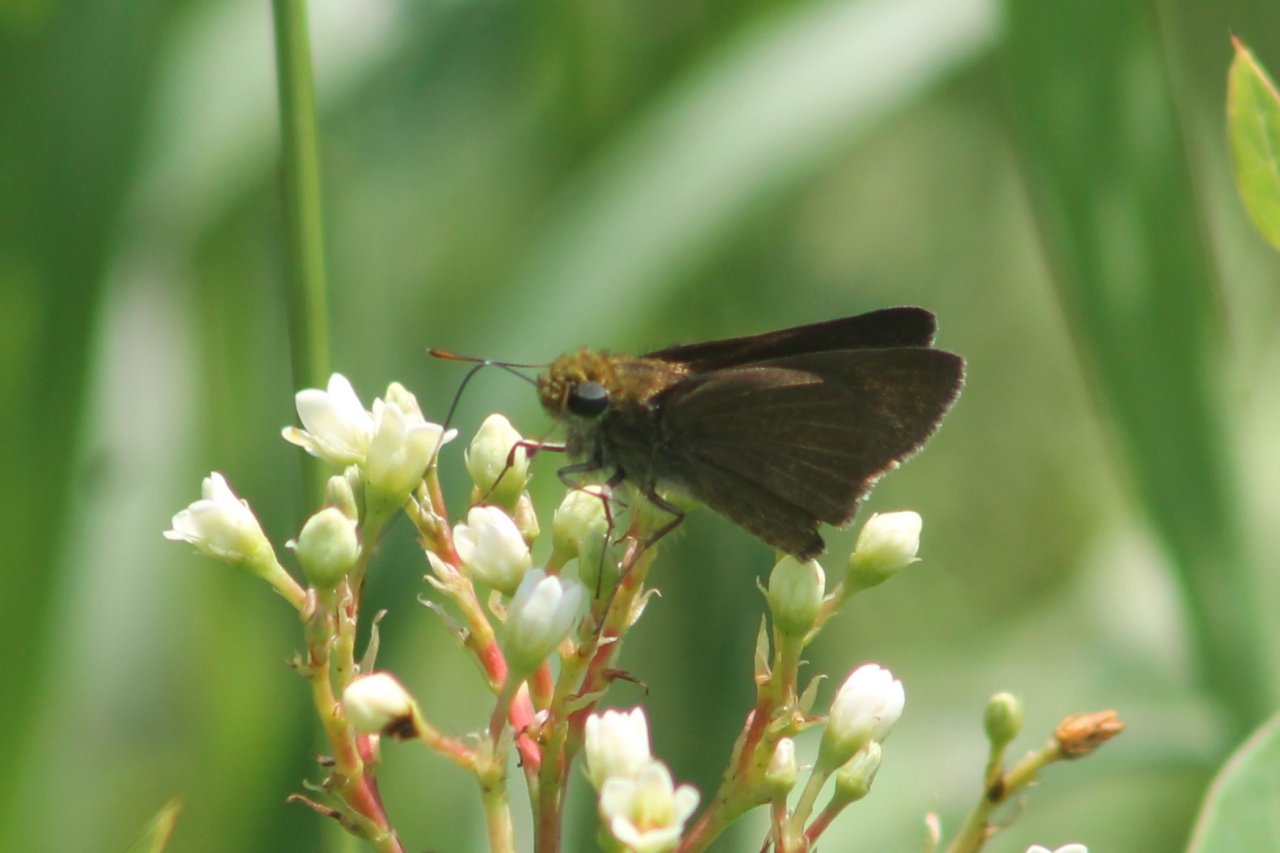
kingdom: Animalia
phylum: Arthropoda
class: Insecta
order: Lepidoptera
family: Hesperiidae
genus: Euphyes
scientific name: Euphyes vestris
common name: Dun Skipper
